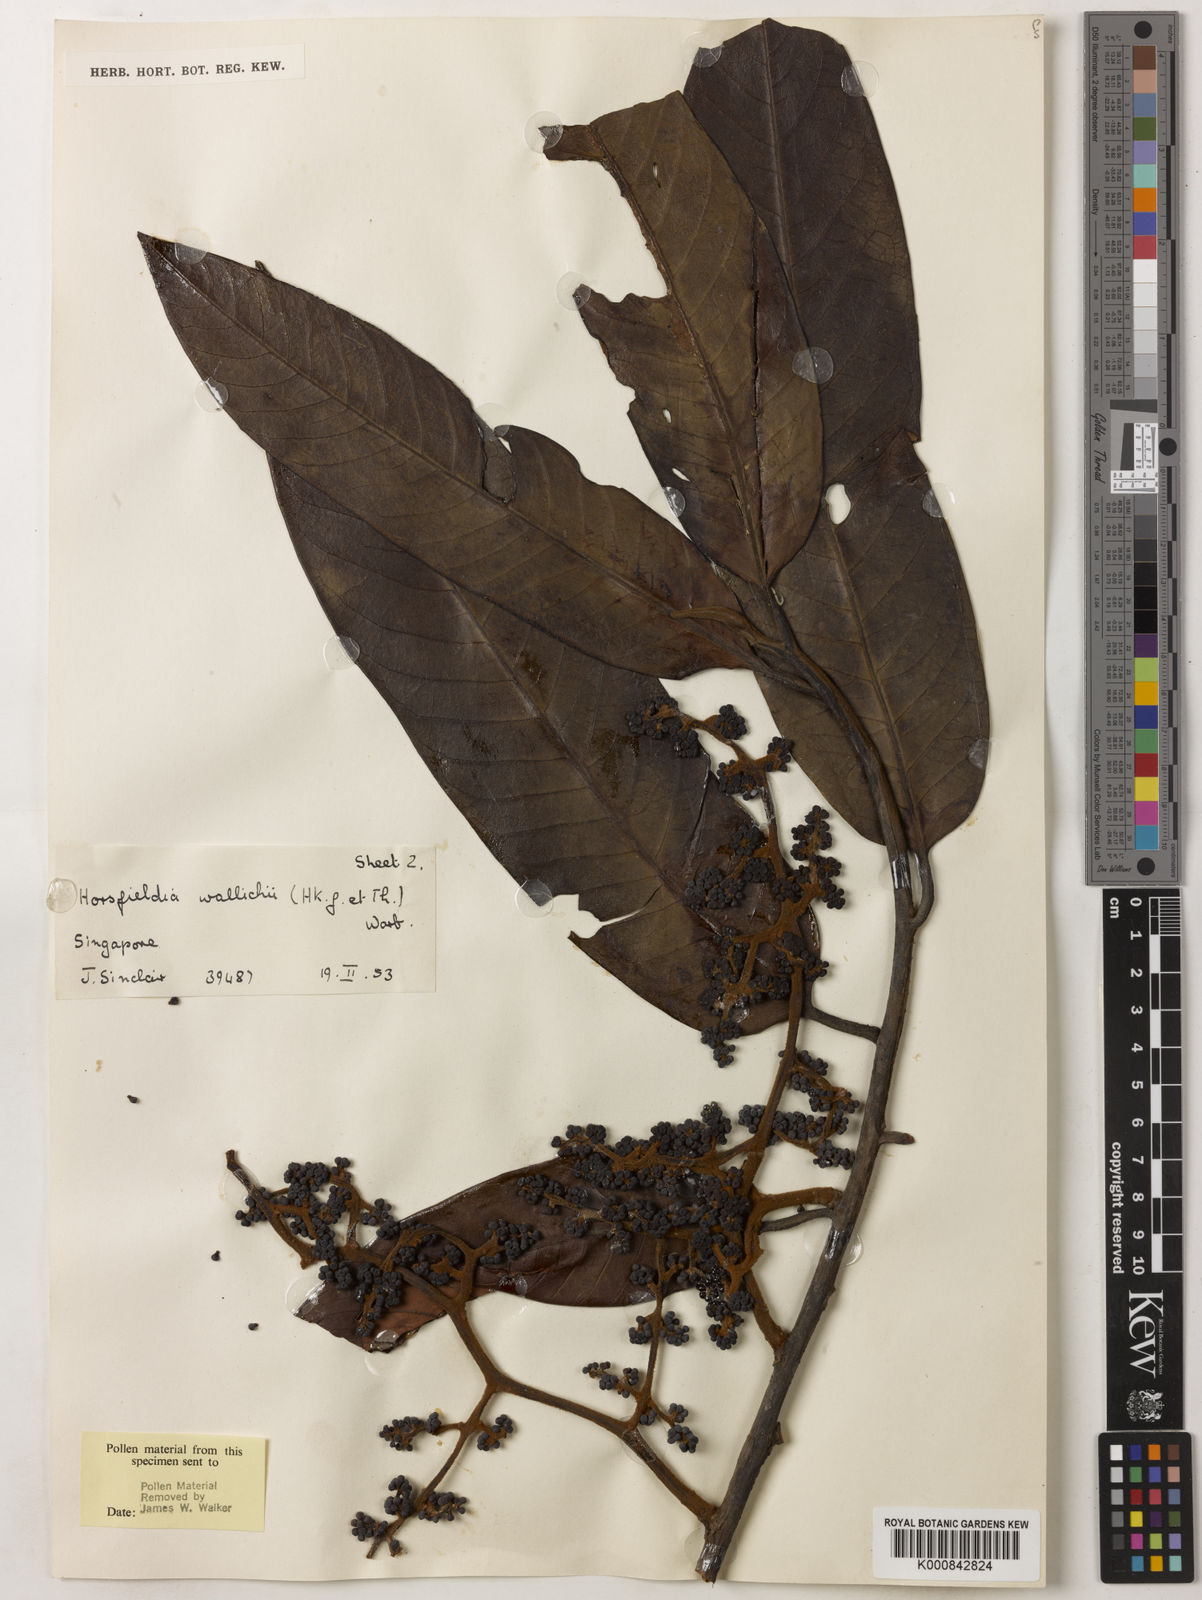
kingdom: Plantae
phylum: Tracheophyta
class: Magnoliopsida
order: Magnoliales
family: Myristicaceae
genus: Horsfieldia
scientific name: Horsfieldia wallichii
